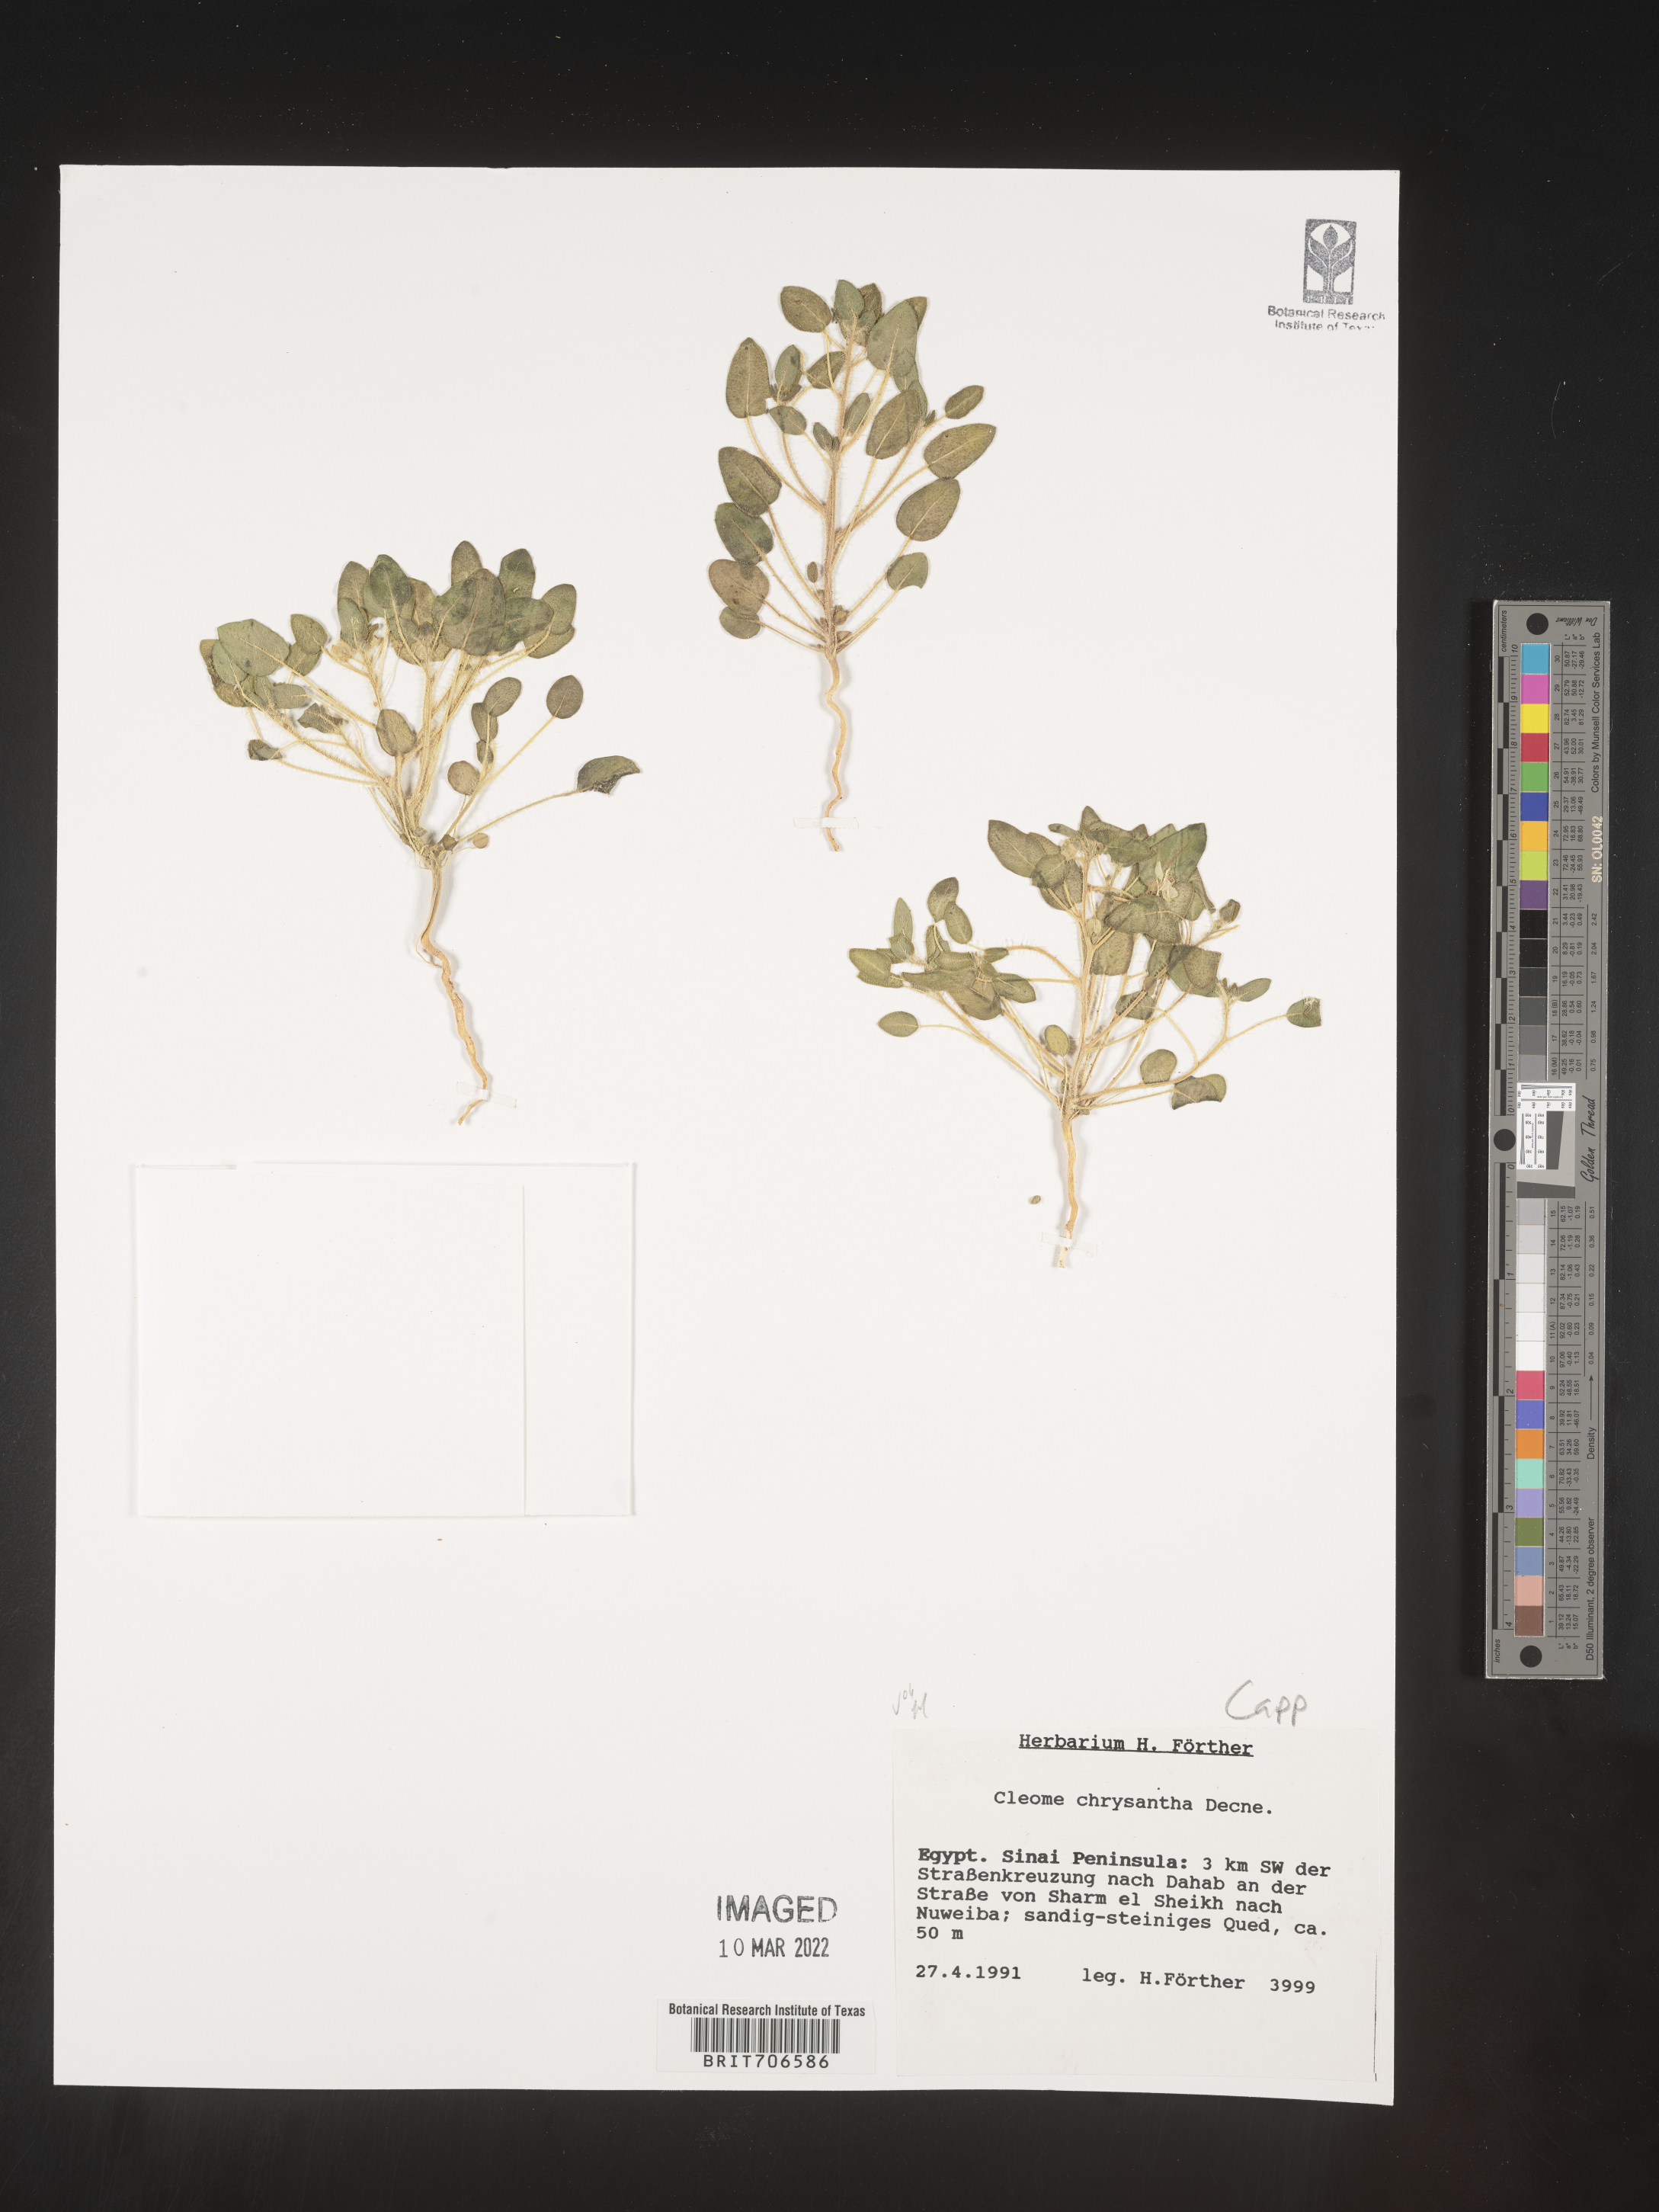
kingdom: Plantae
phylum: Tracheophyta
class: Magnoliopsida
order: Brassicales
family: Cleomaceae
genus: Cleome
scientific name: Cleome
